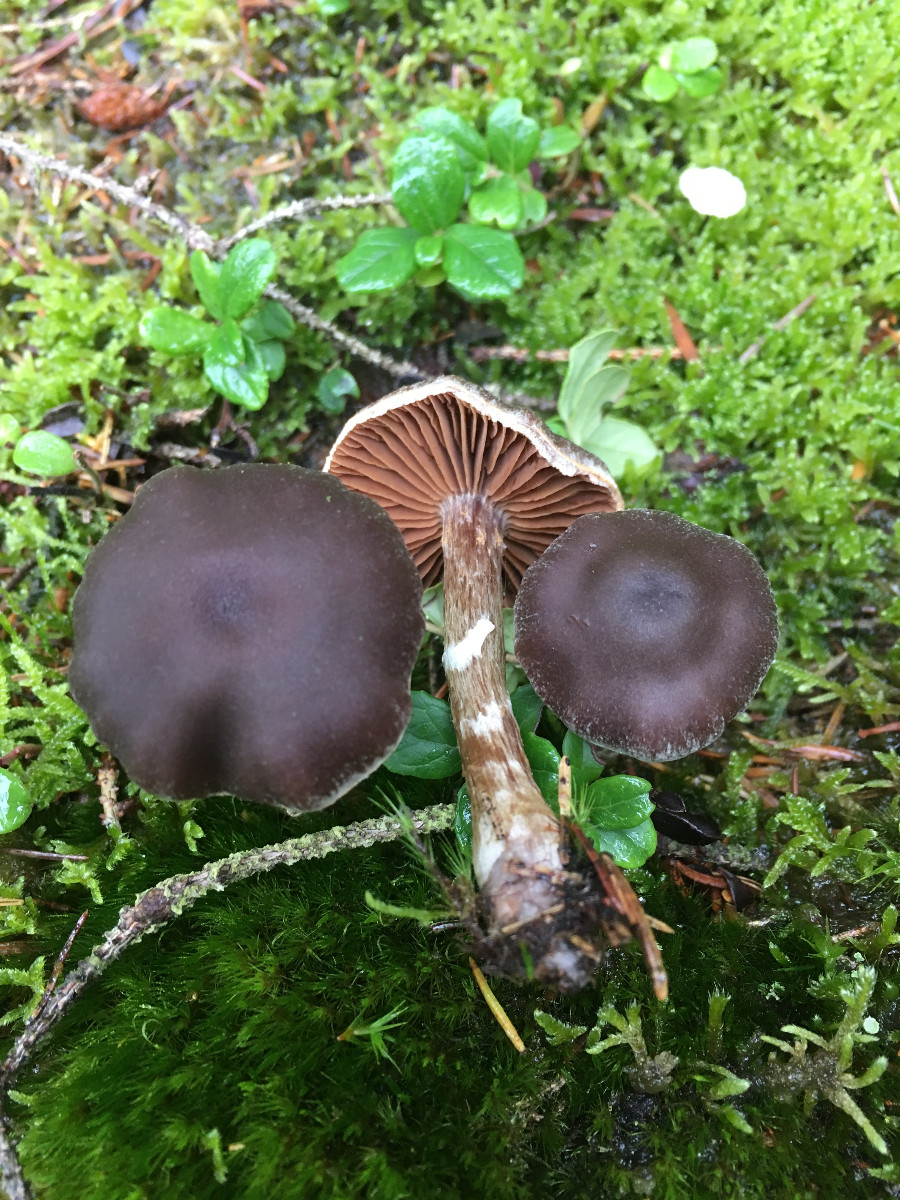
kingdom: Fungi
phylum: Basidiomycota
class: Agaricomycetes
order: Agaricales
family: Cortinariaceae
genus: Cortinarius
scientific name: Cortinarius
